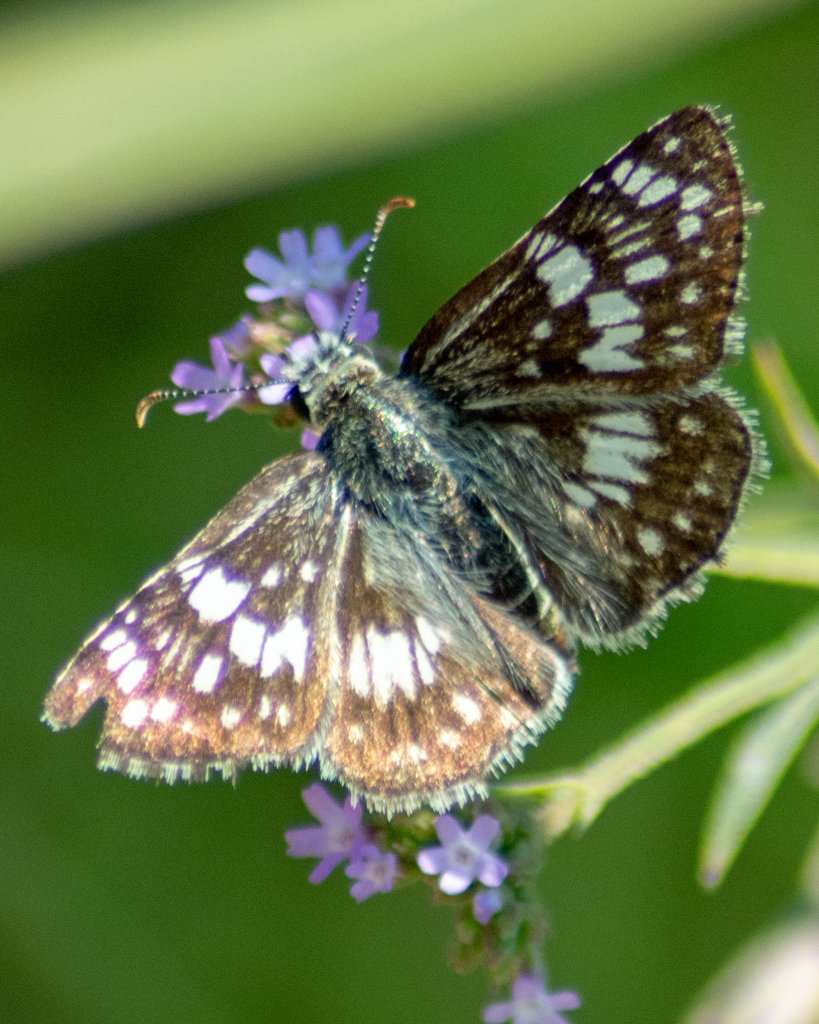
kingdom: Animalia
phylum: Arthropoda
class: Insecta
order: Lepidoptera
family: Hesperiidae
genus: Pyrgus
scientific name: Pyrgus communis
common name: White Checkered-Skipper
